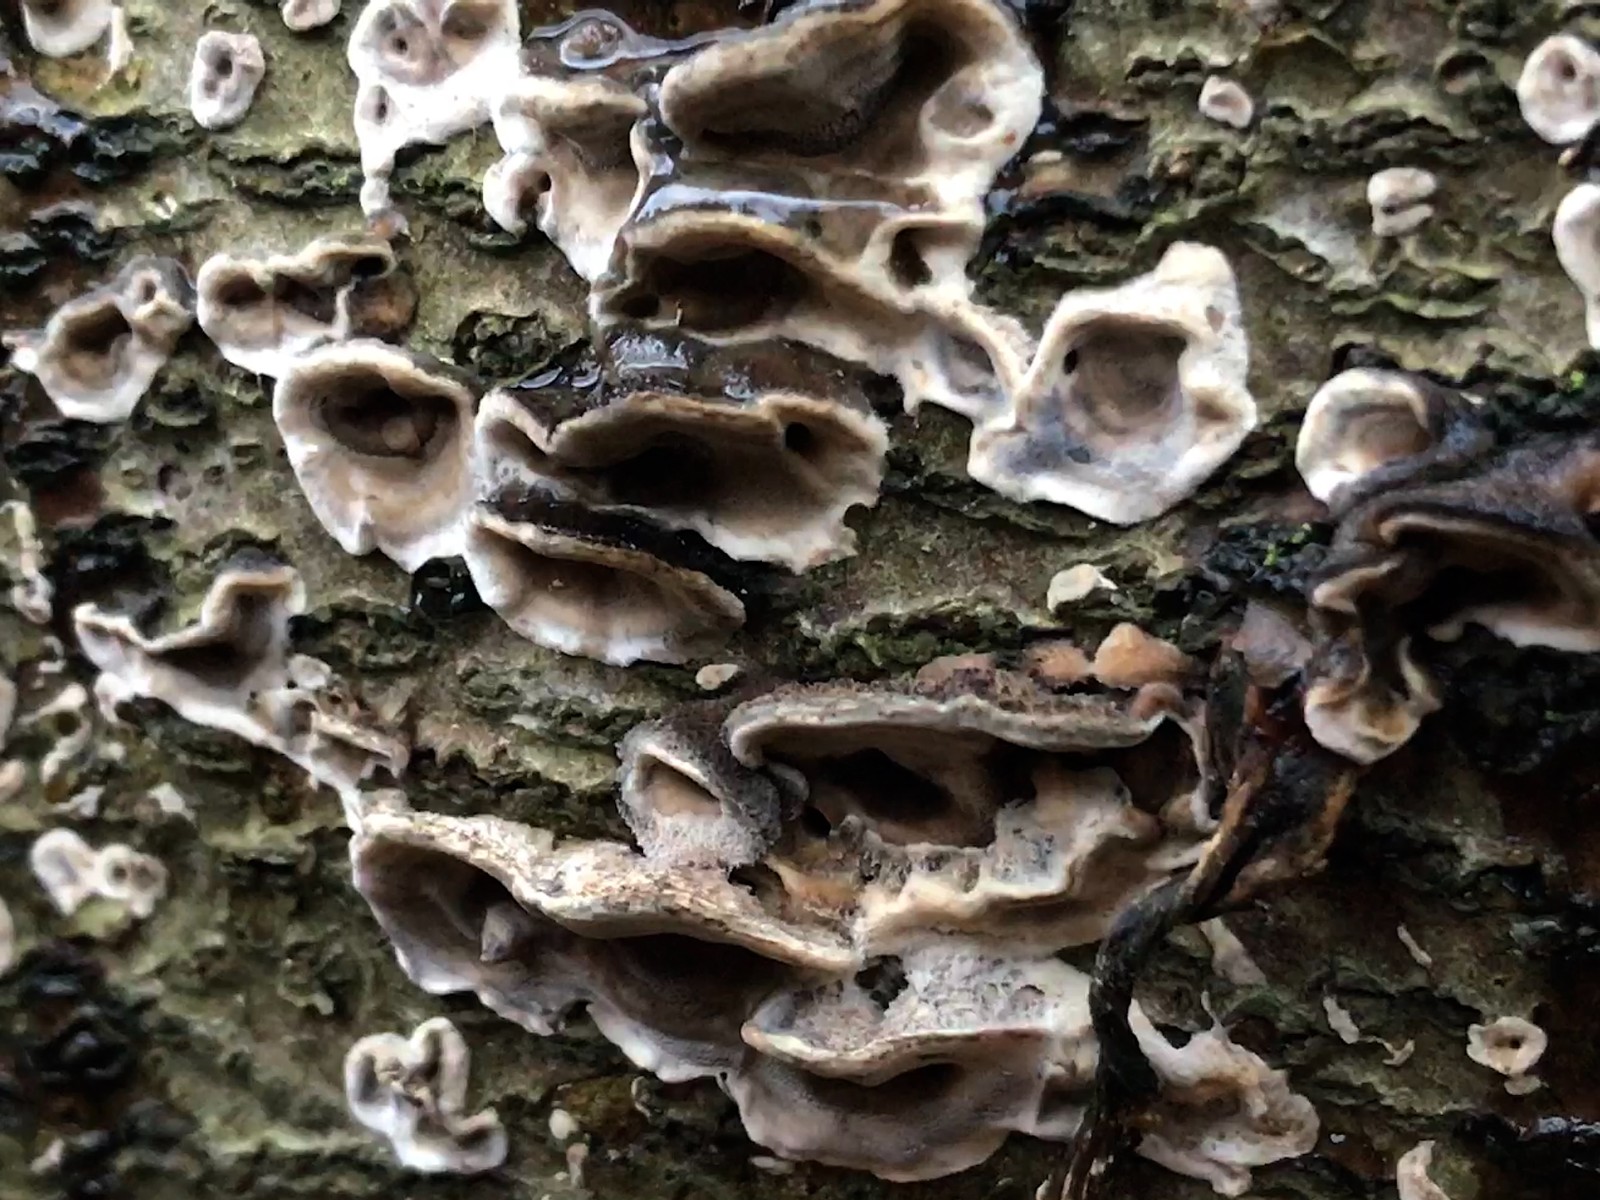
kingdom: Fungi
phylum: Basidiomycota
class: Agaricomycetes
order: Polyporales
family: Phanerochaetaceae
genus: Bjerkandera
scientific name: Bjerkandera adusta
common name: sveden sodporesvamp
